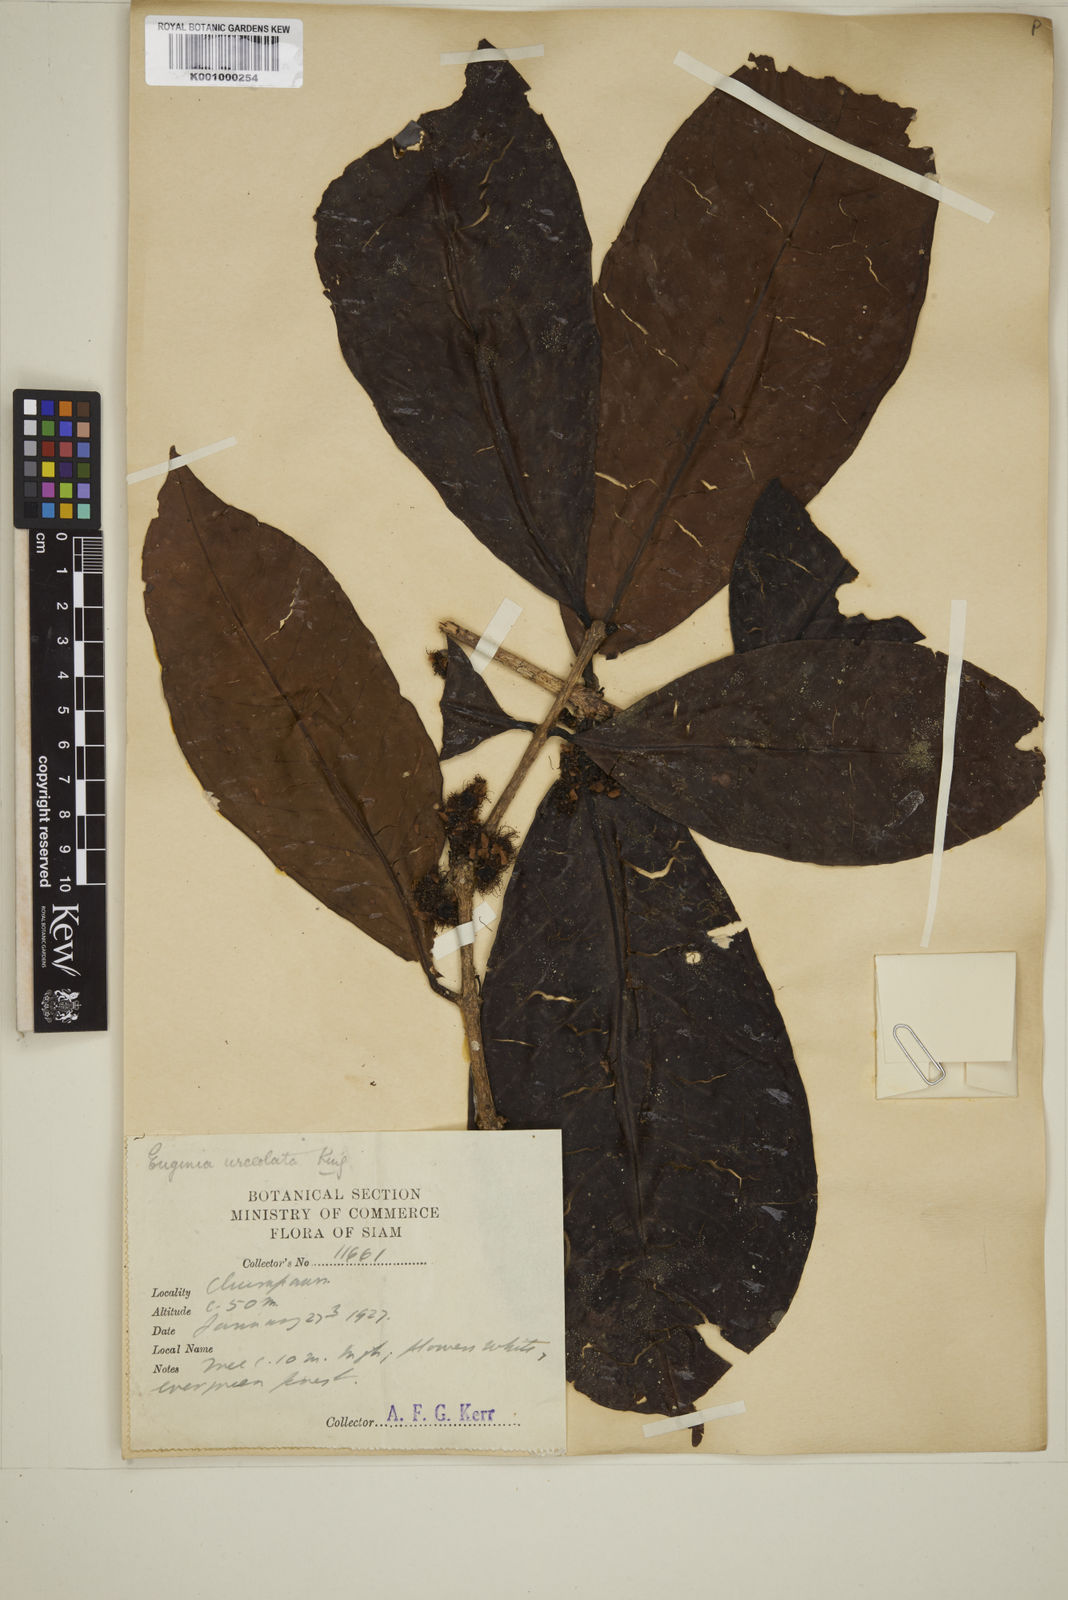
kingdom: Plantae
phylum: Tracheophyta
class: Magnoliopsida
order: Myrtales
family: Myrtaceae
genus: Eugenia
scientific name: Eugenia
